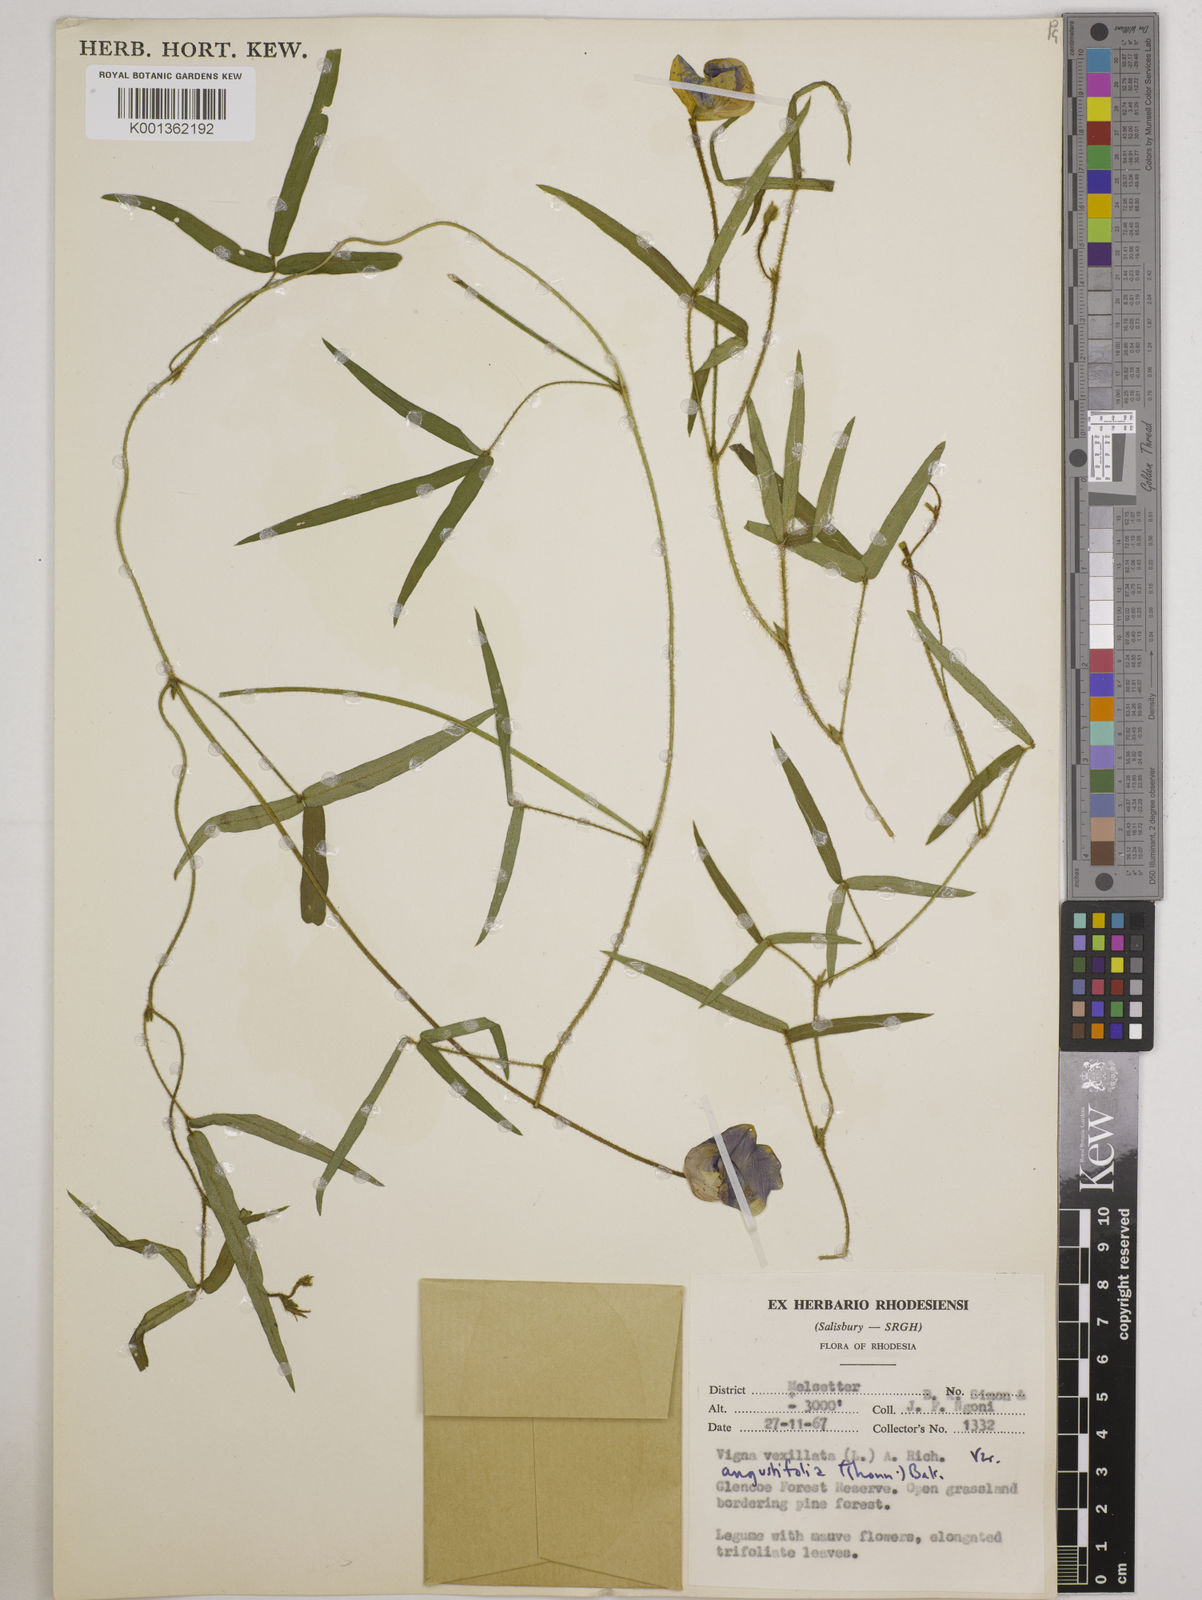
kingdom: Plantae
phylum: Tracheophyta
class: Magnoliopsida
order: Fabales
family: Fabaceae
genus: Vigna
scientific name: Vigna vexillata
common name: Zombi pea
